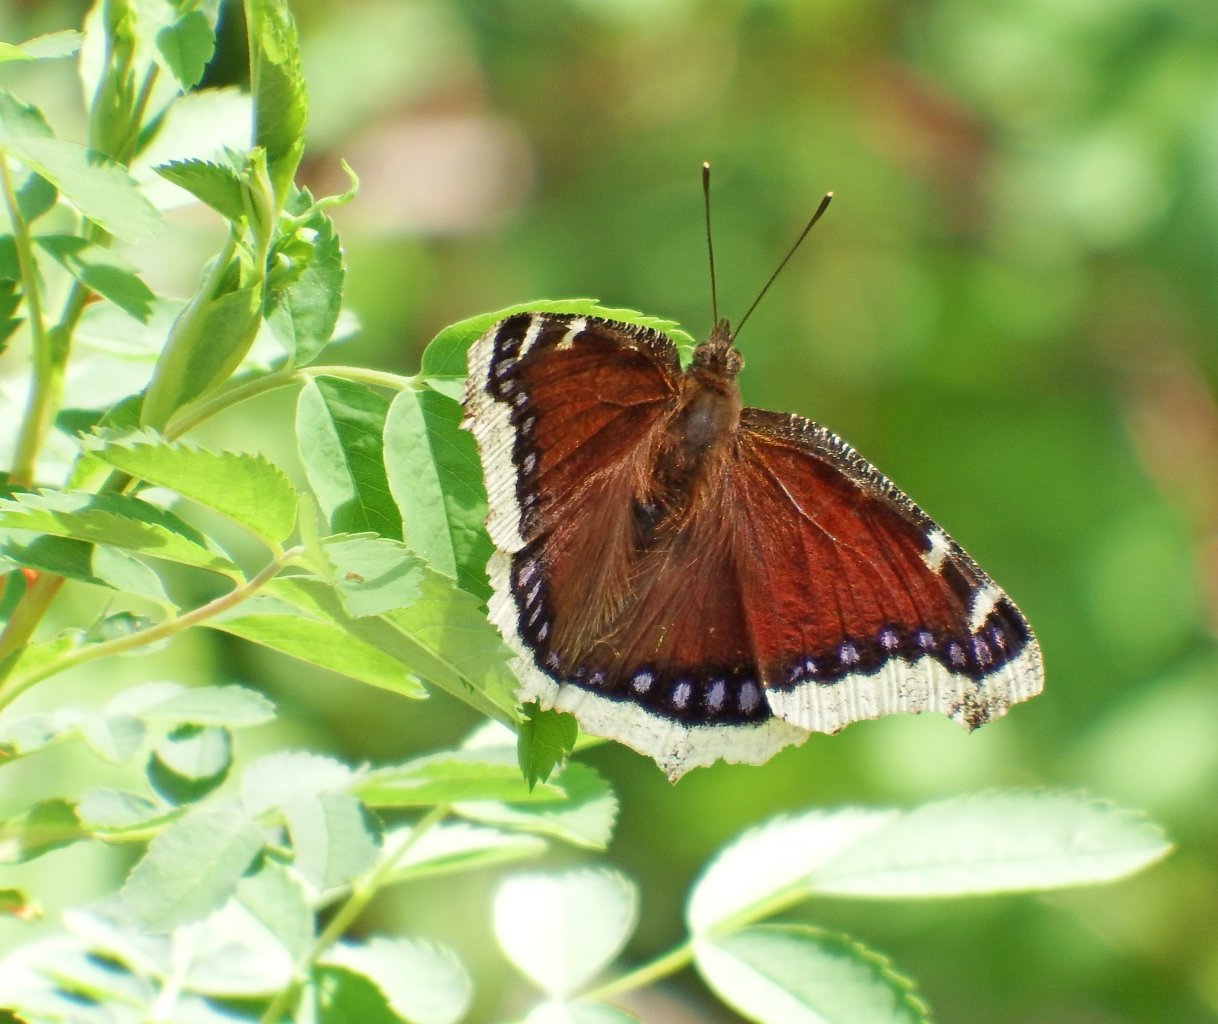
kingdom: Animalia
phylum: Arthropoda
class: Insecta
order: Lepidoptera
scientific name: Lepidoptera
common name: Butterflies
